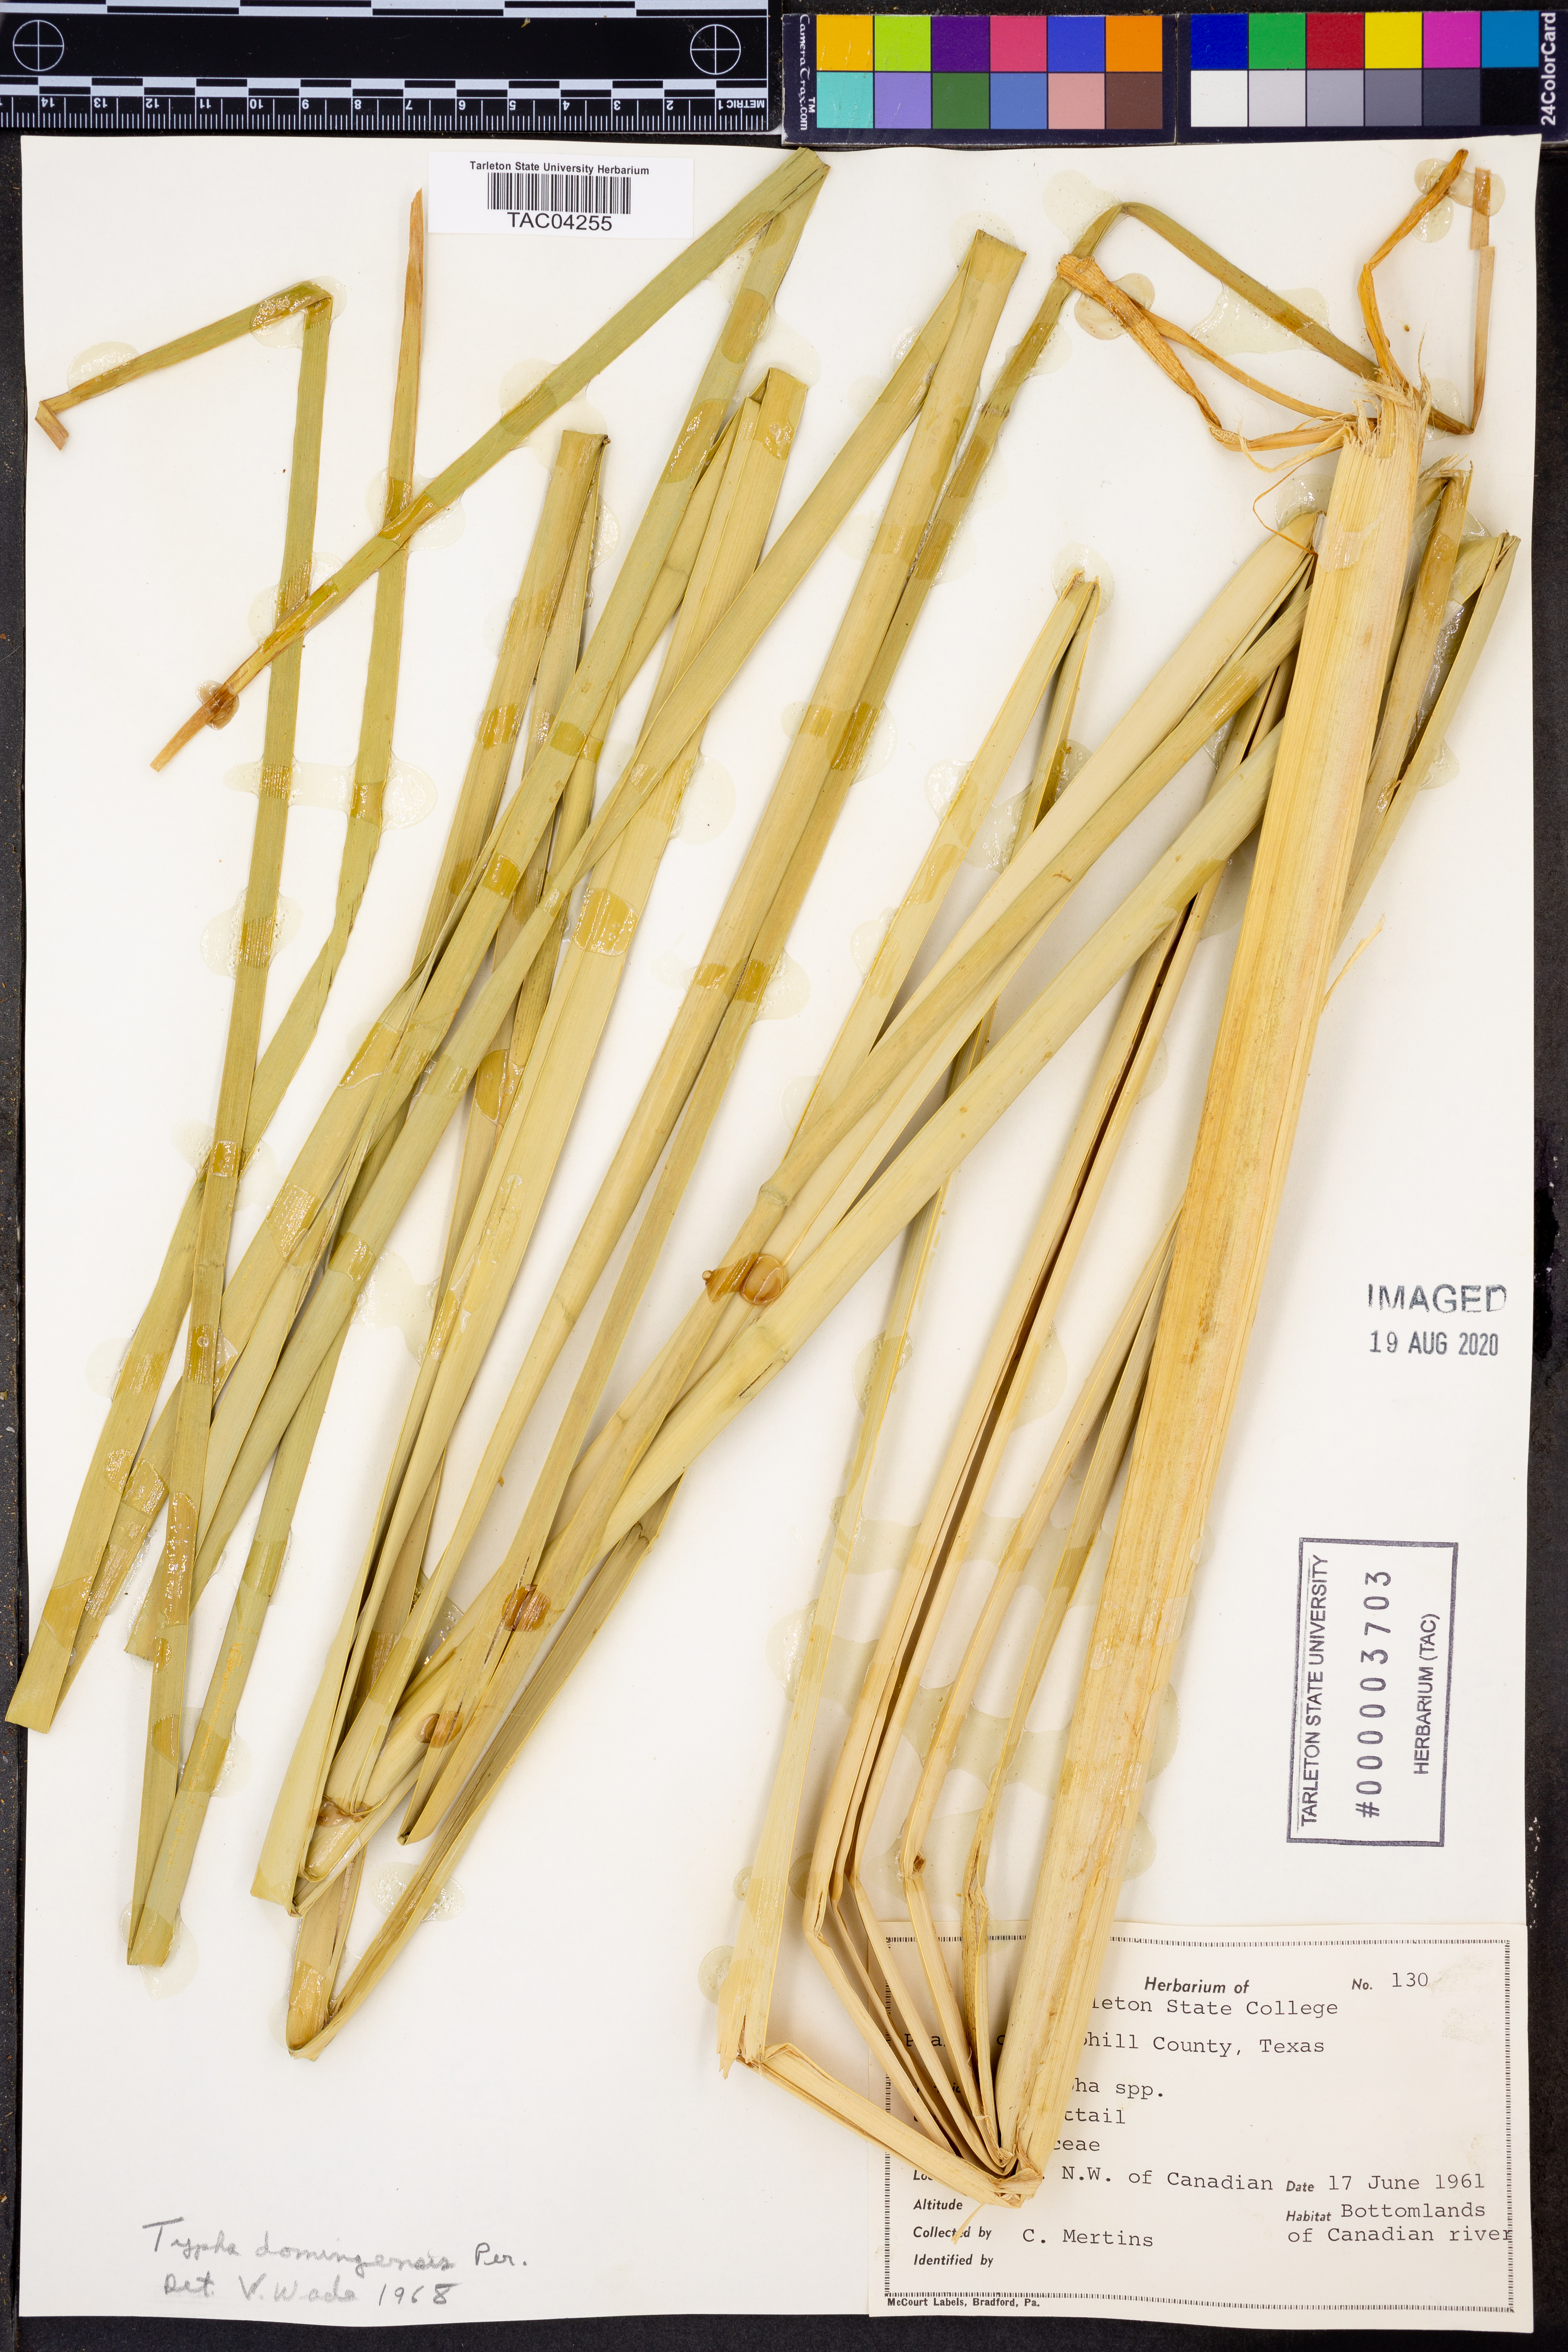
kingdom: Plantae
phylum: Tracheophyta
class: Liliopsida
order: Poales
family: Typhaceae
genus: Typha
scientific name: Typha domingensis
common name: Southern cattail
